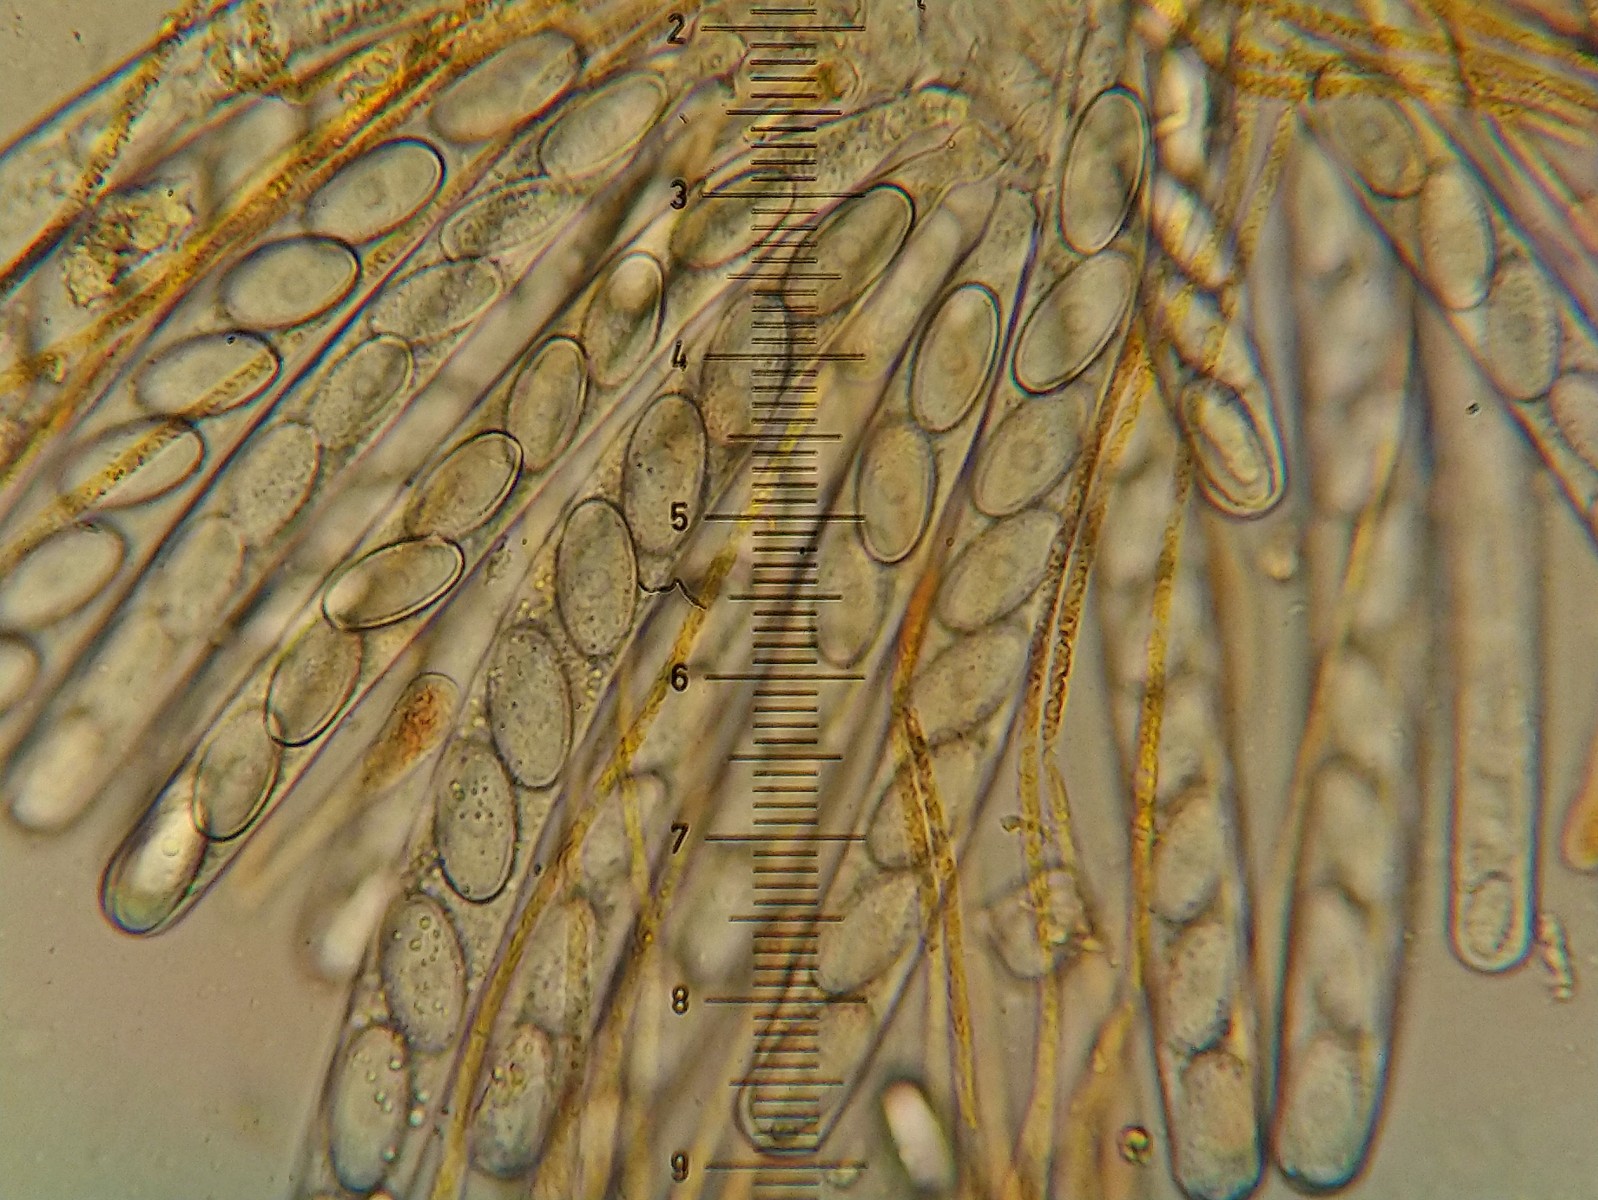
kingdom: Fungi
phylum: Ascomycota
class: Pezizomycetes
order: Pezizales
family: Pyronemataceae
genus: Cheilymenia
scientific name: Cheilymenia fimicola
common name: møg-hårbæger
